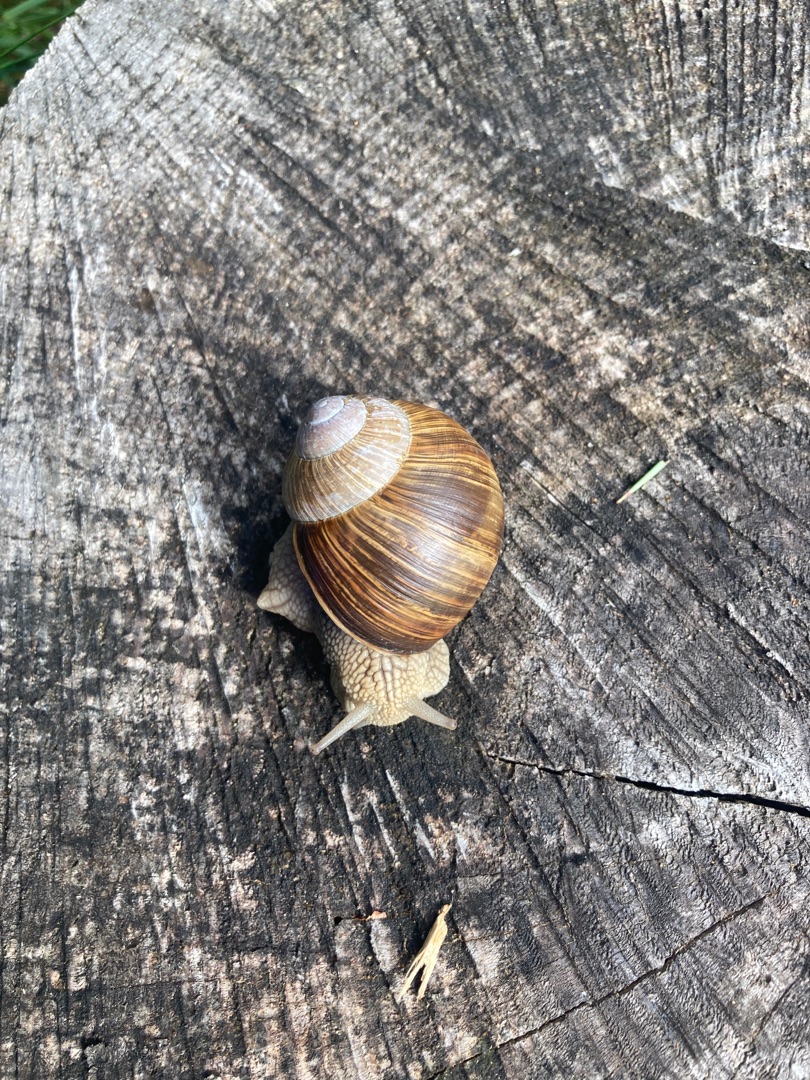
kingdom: Animalia
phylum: Mollusca
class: Gastropoda
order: Stylommatophora
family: Helicidae
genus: Helix
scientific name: Helix pomatia
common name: Vinbjergsnegl
